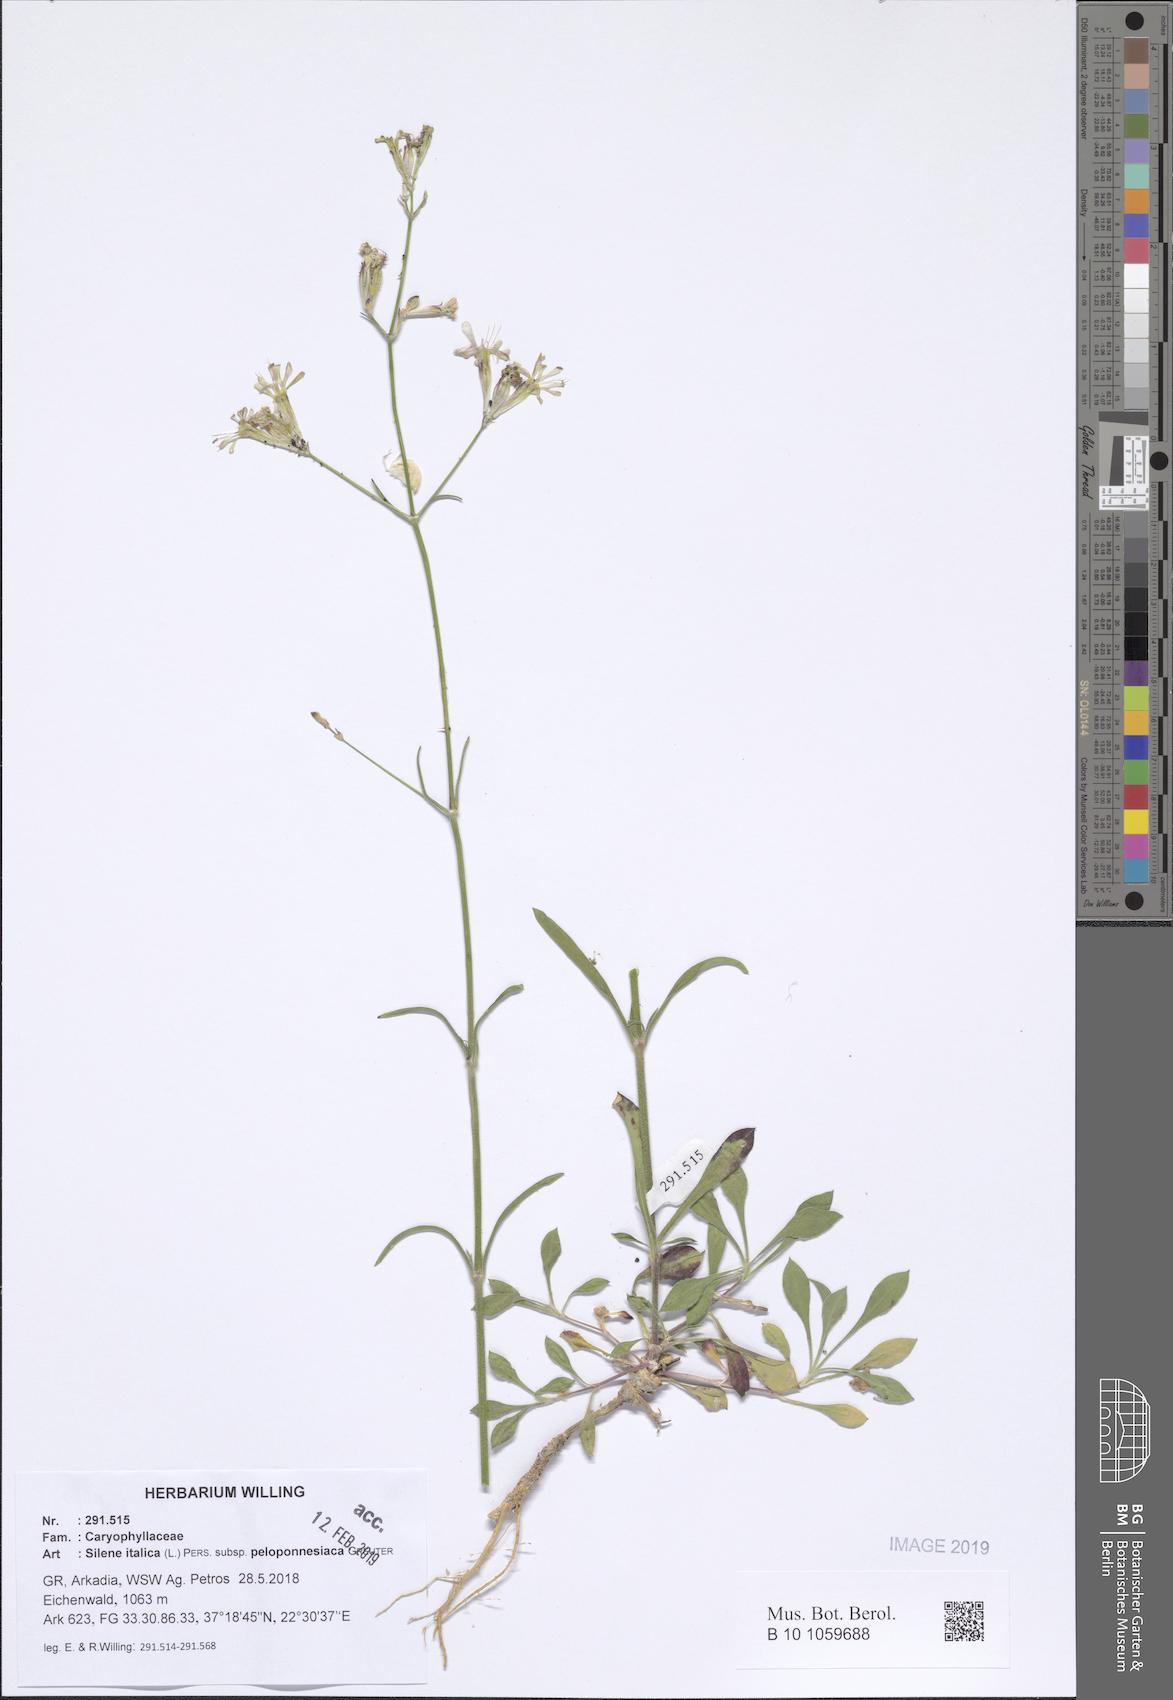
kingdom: Plantae
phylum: Tracheophyta
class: Magnoliopsida
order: Caryophyllales
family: Caryophyllaceae
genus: Silene
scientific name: Silene italica
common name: Italian catchfly
